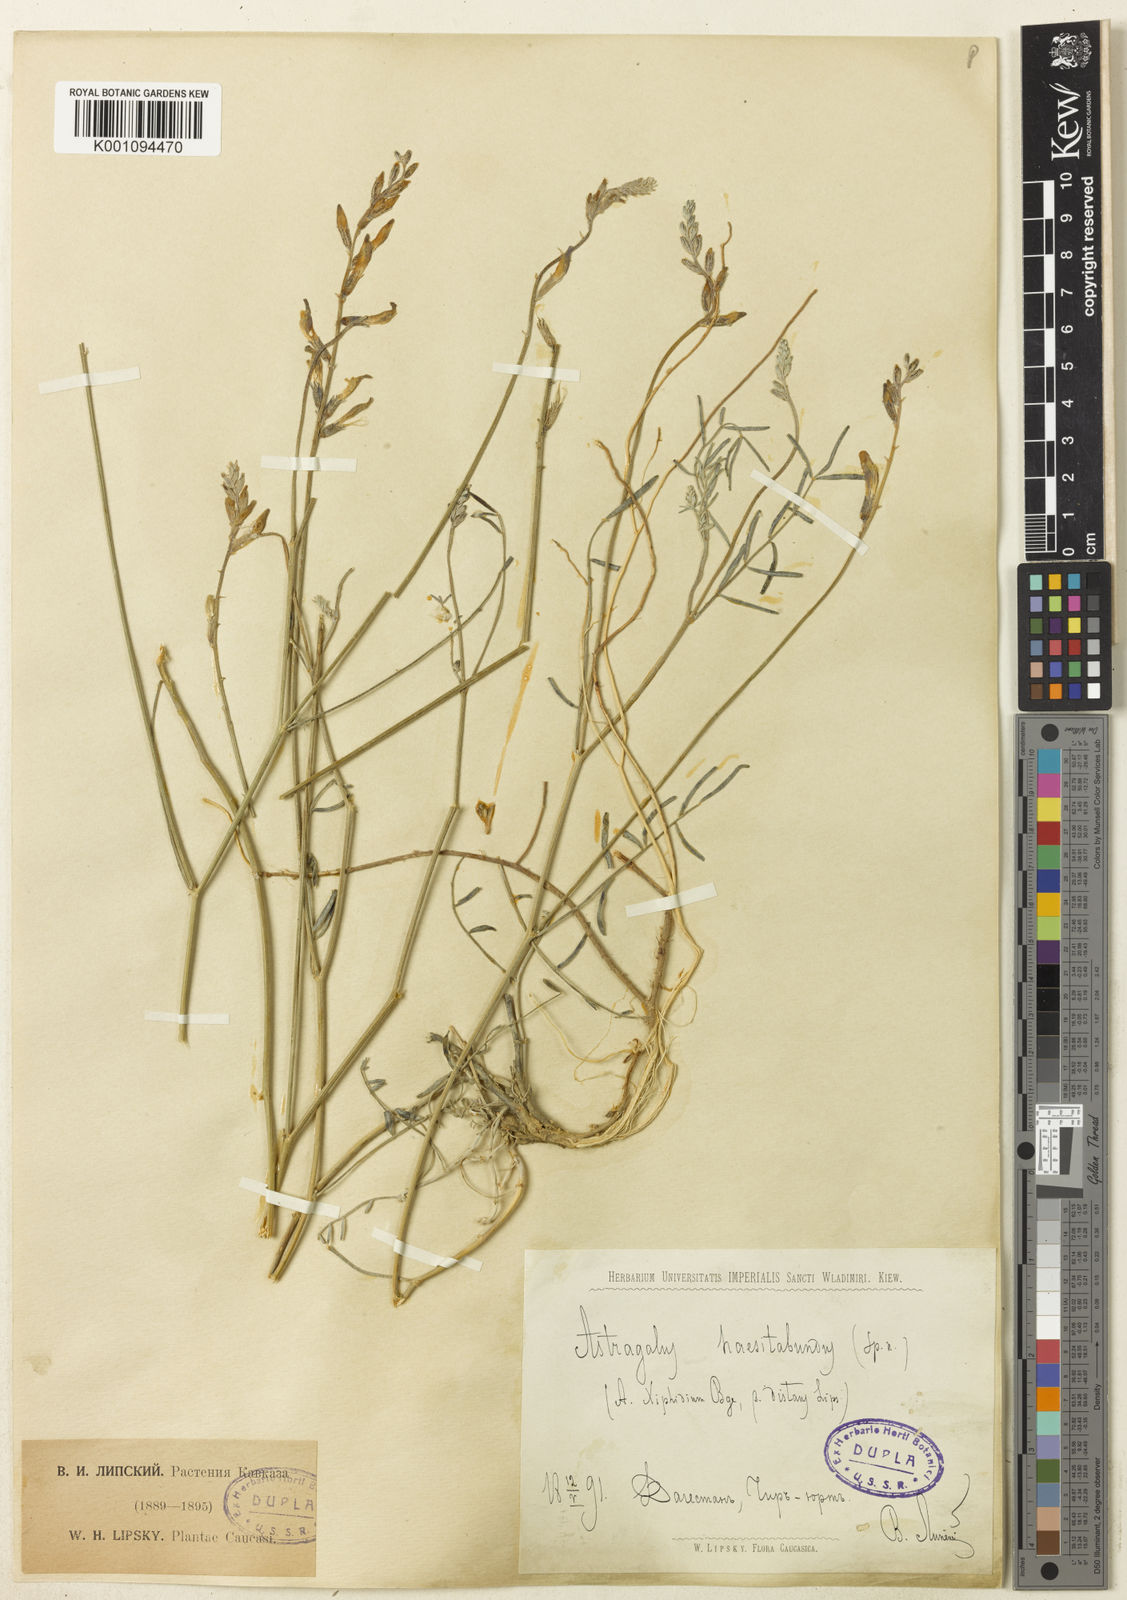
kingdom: Plantae
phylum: Tracheophyta
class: Magnoliopsida
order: Fabales
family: Fabaceae
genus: Astragalus
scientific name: Astragalus
